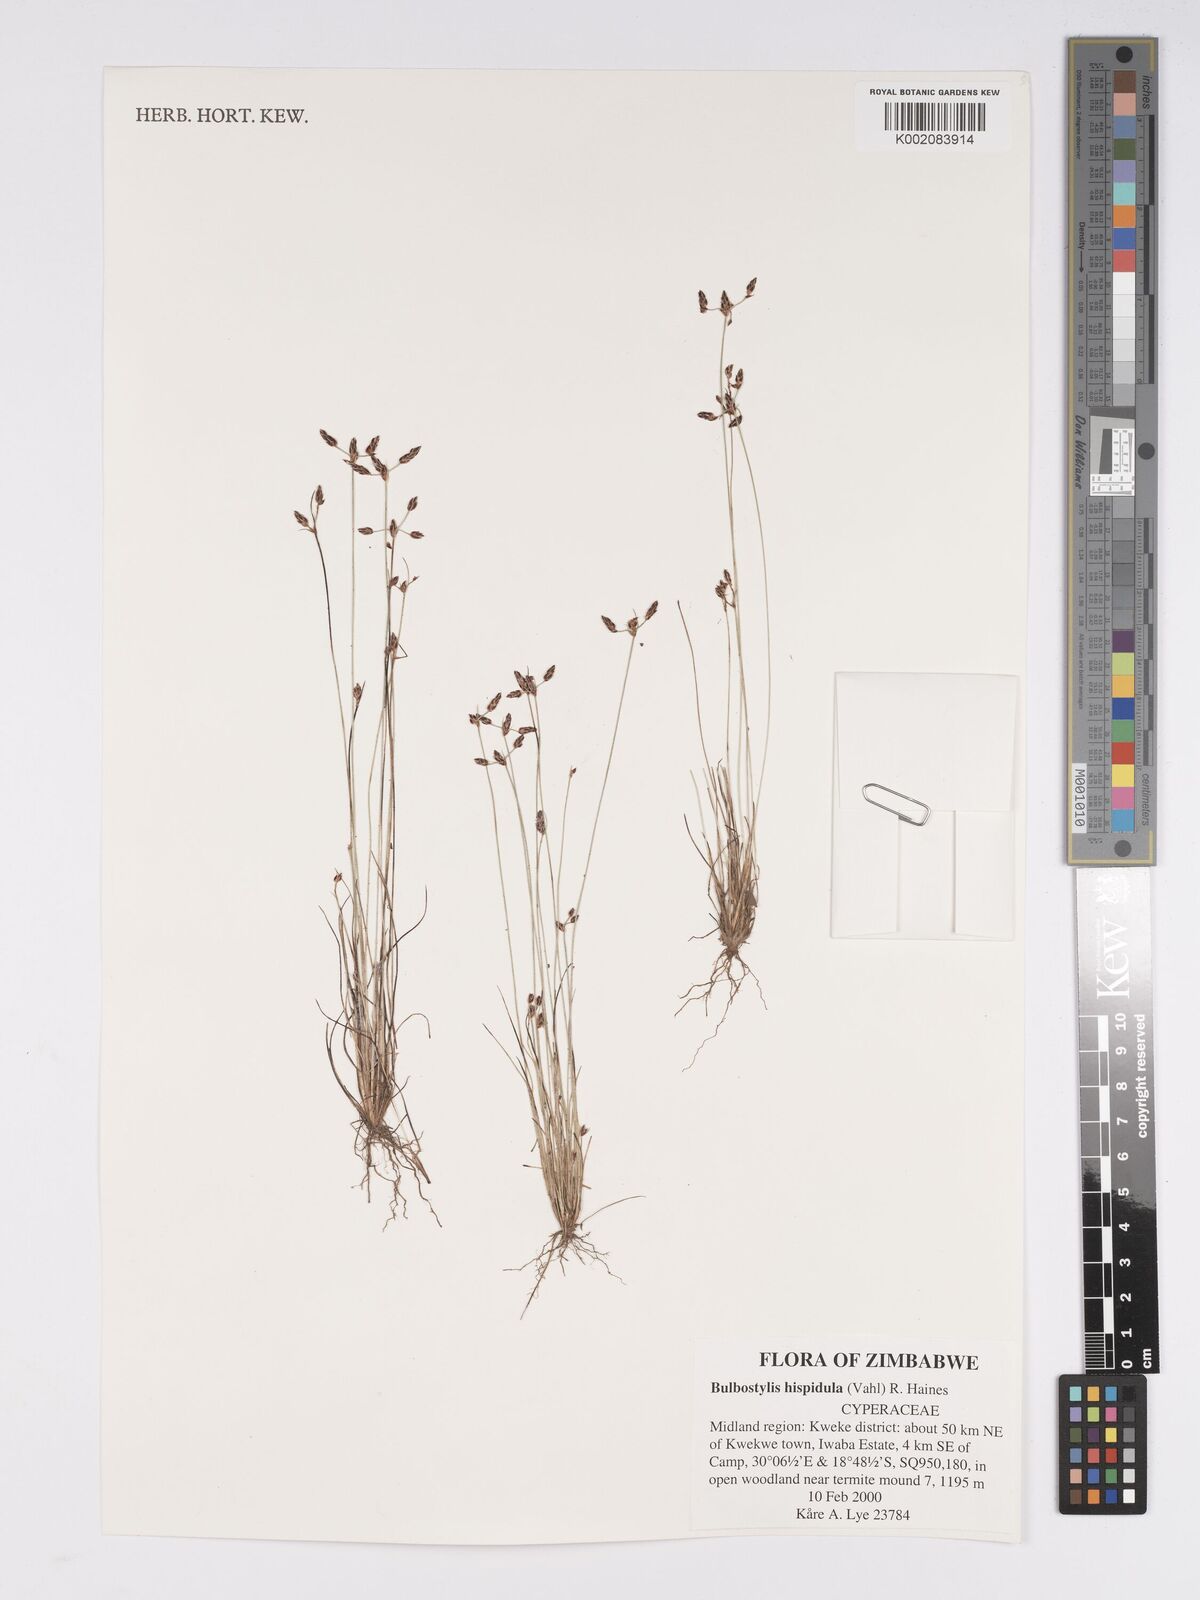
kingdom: Plantae
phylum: Tracheophyta
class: Liliopsida
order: Poales
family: Cyperaceae
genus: Bulbostylis
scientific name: Bulbostylis hispidula
